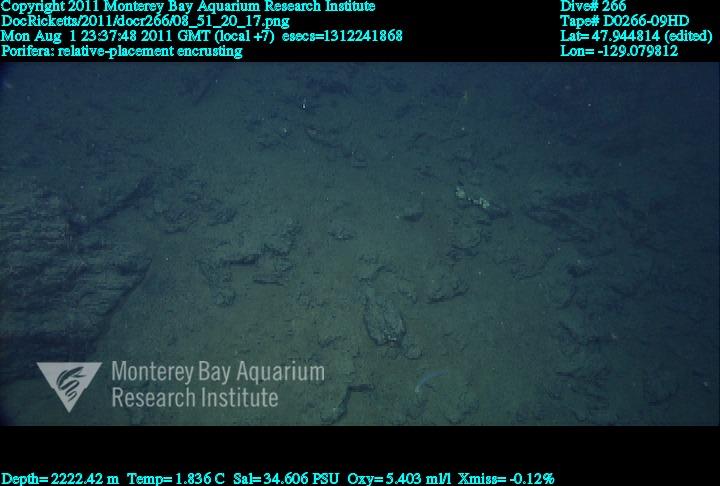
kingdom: Animalia
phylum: Porifera
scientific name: Porifera
